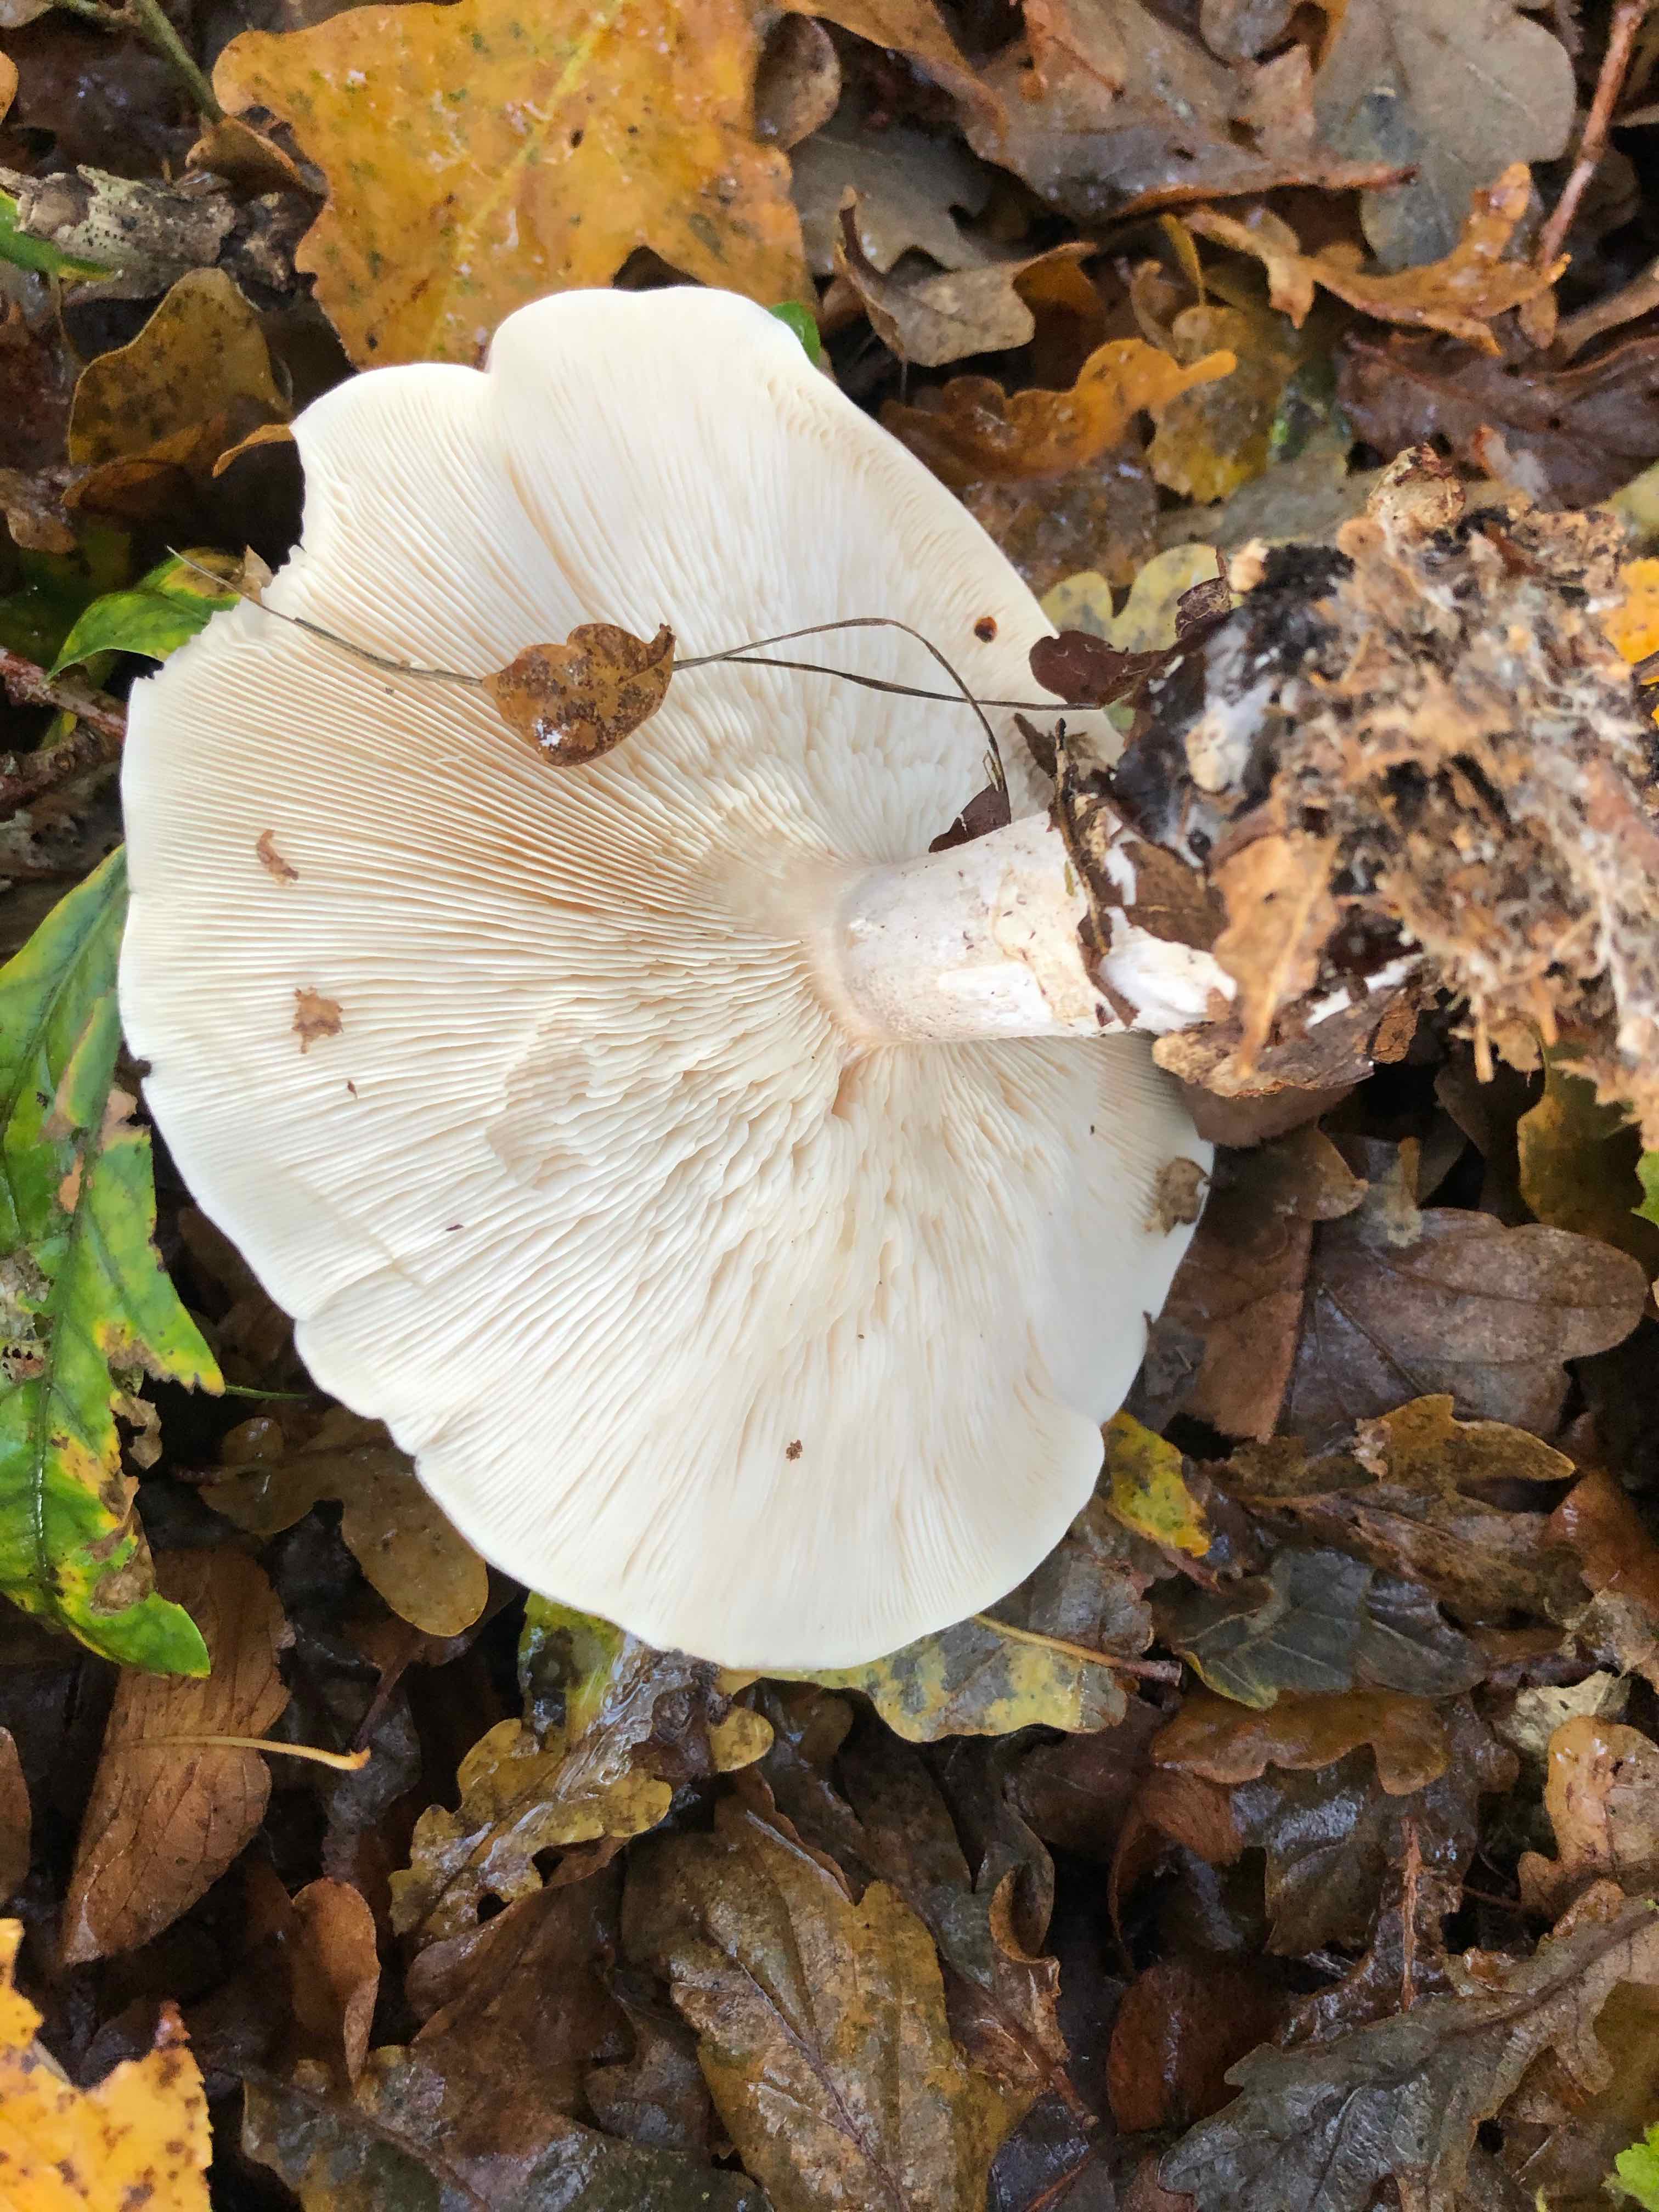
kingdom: Fungi
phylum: Basidiomycota
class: Agaricomycetes
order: Agaricales
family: Tricholomataceae
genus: Clitocybe
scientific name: Clitocybe nebularis
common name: tåge-tragthat
